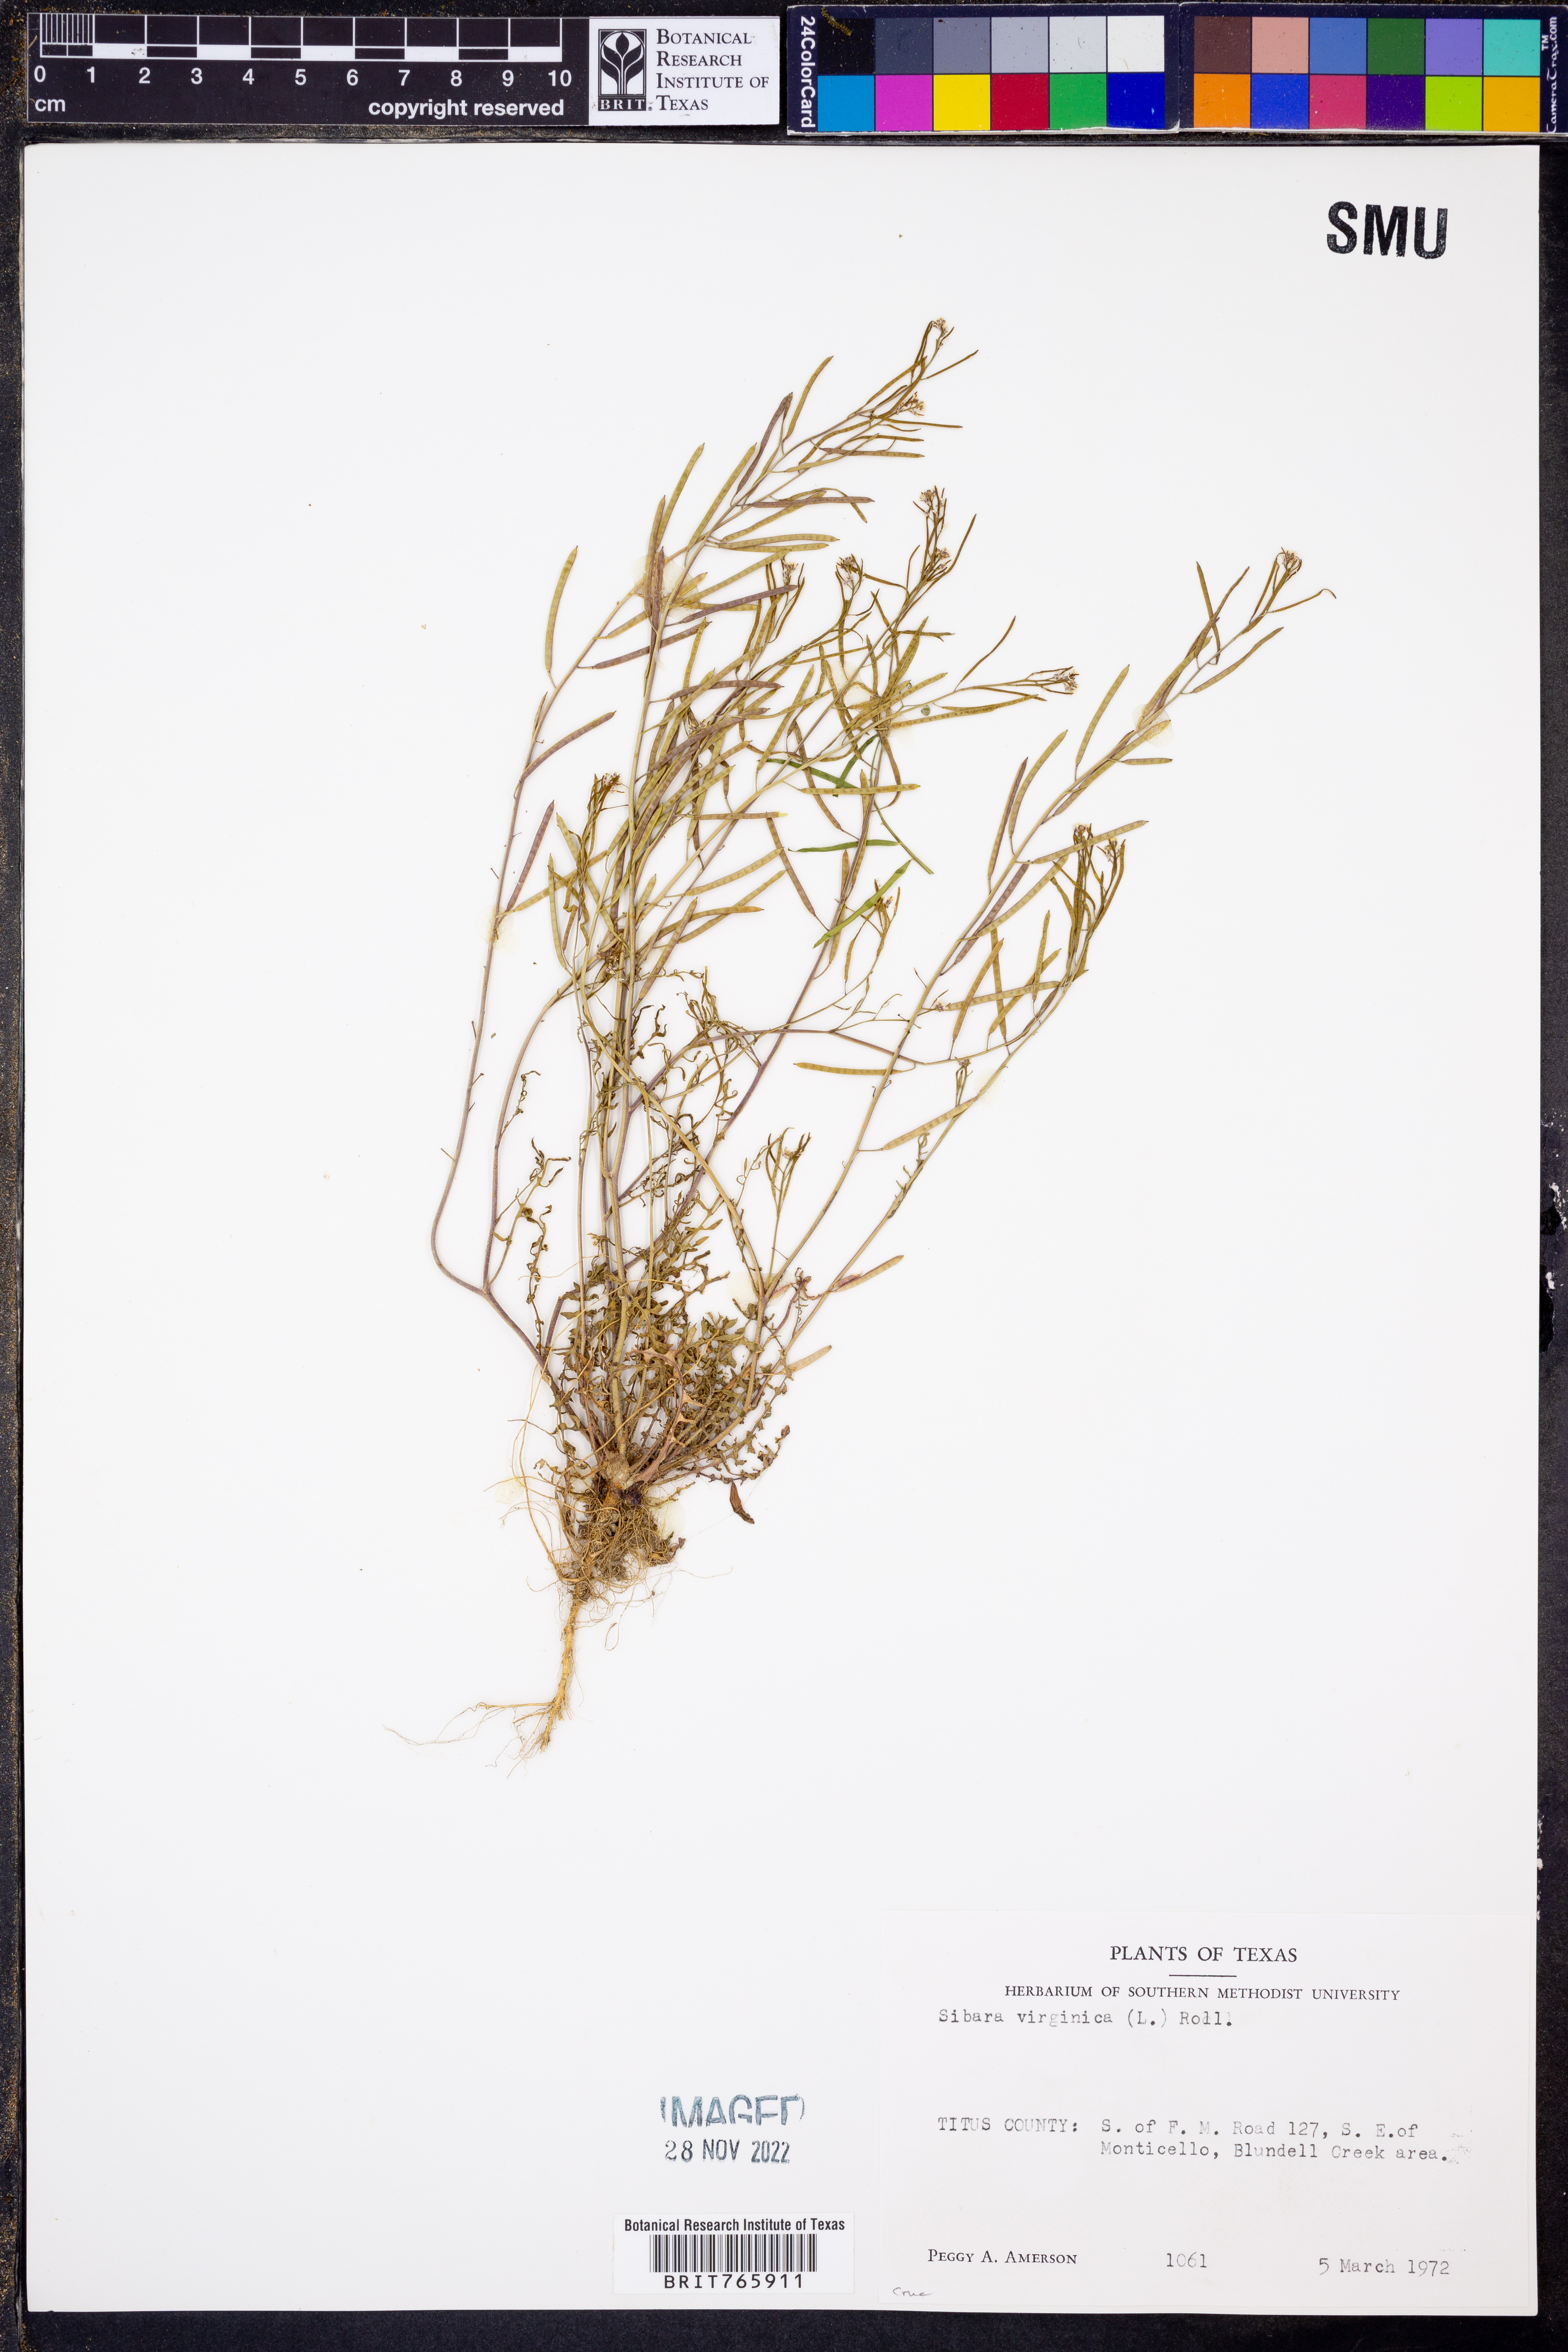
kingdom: Plantae
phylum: Tracheophyta
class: Magnoliopsida
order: Brassicales
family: Brassicaceae
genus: Planodes
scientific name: Planodes virginicum
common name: Virginia cress
